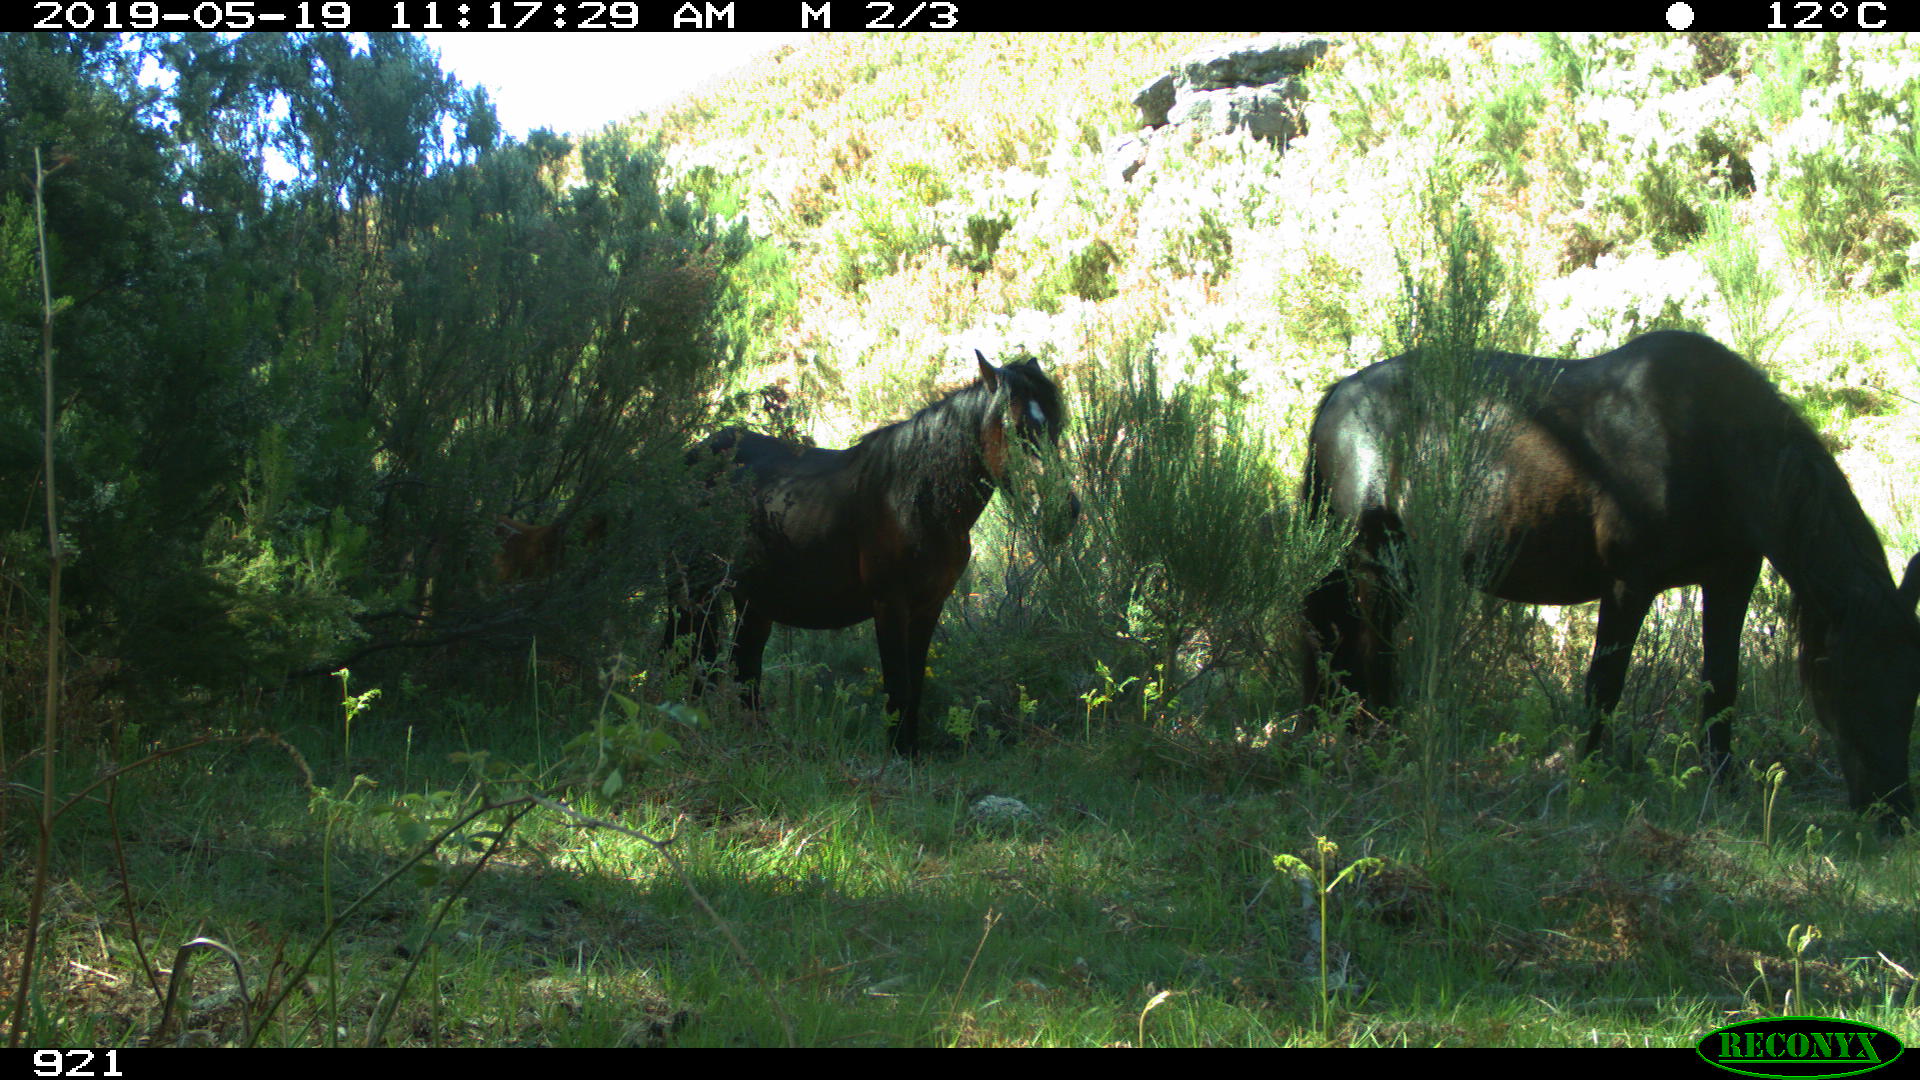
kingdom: Animalia
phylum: Chordata
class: Mammalia
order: Perissodactyla
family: Equidae
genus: Equus
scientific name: Equus caballus
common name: Horse
